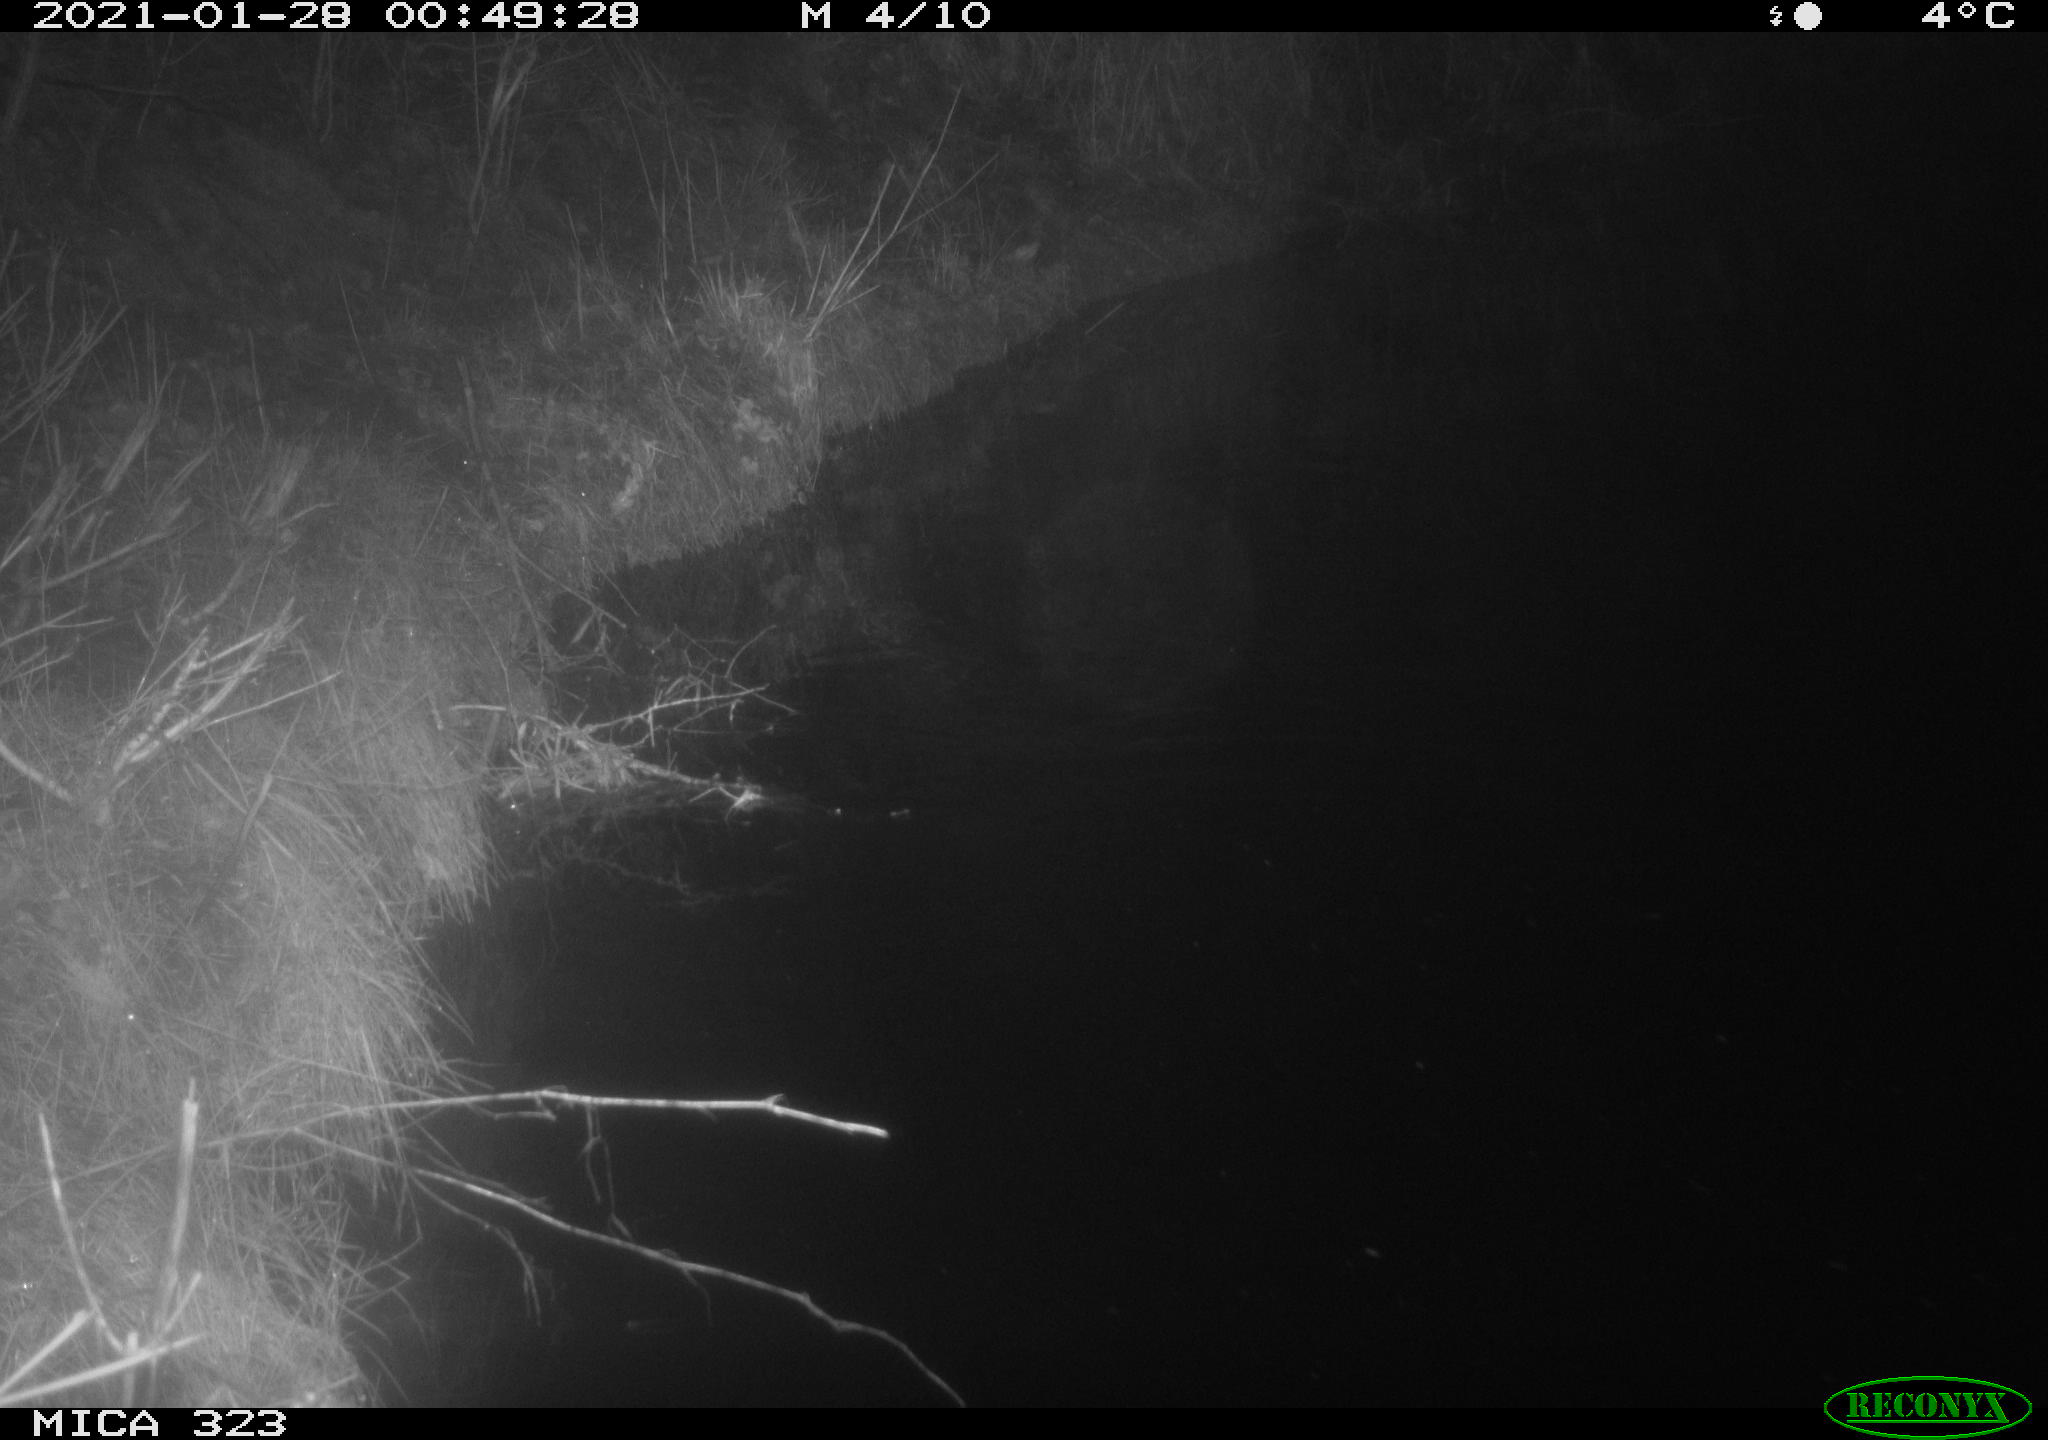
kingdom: Animalia
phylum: Chordata
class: Mammalia
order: Rodentia
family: Myocastoridae
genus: Myocastor
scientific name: Myocastor coypus
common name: Coypu
